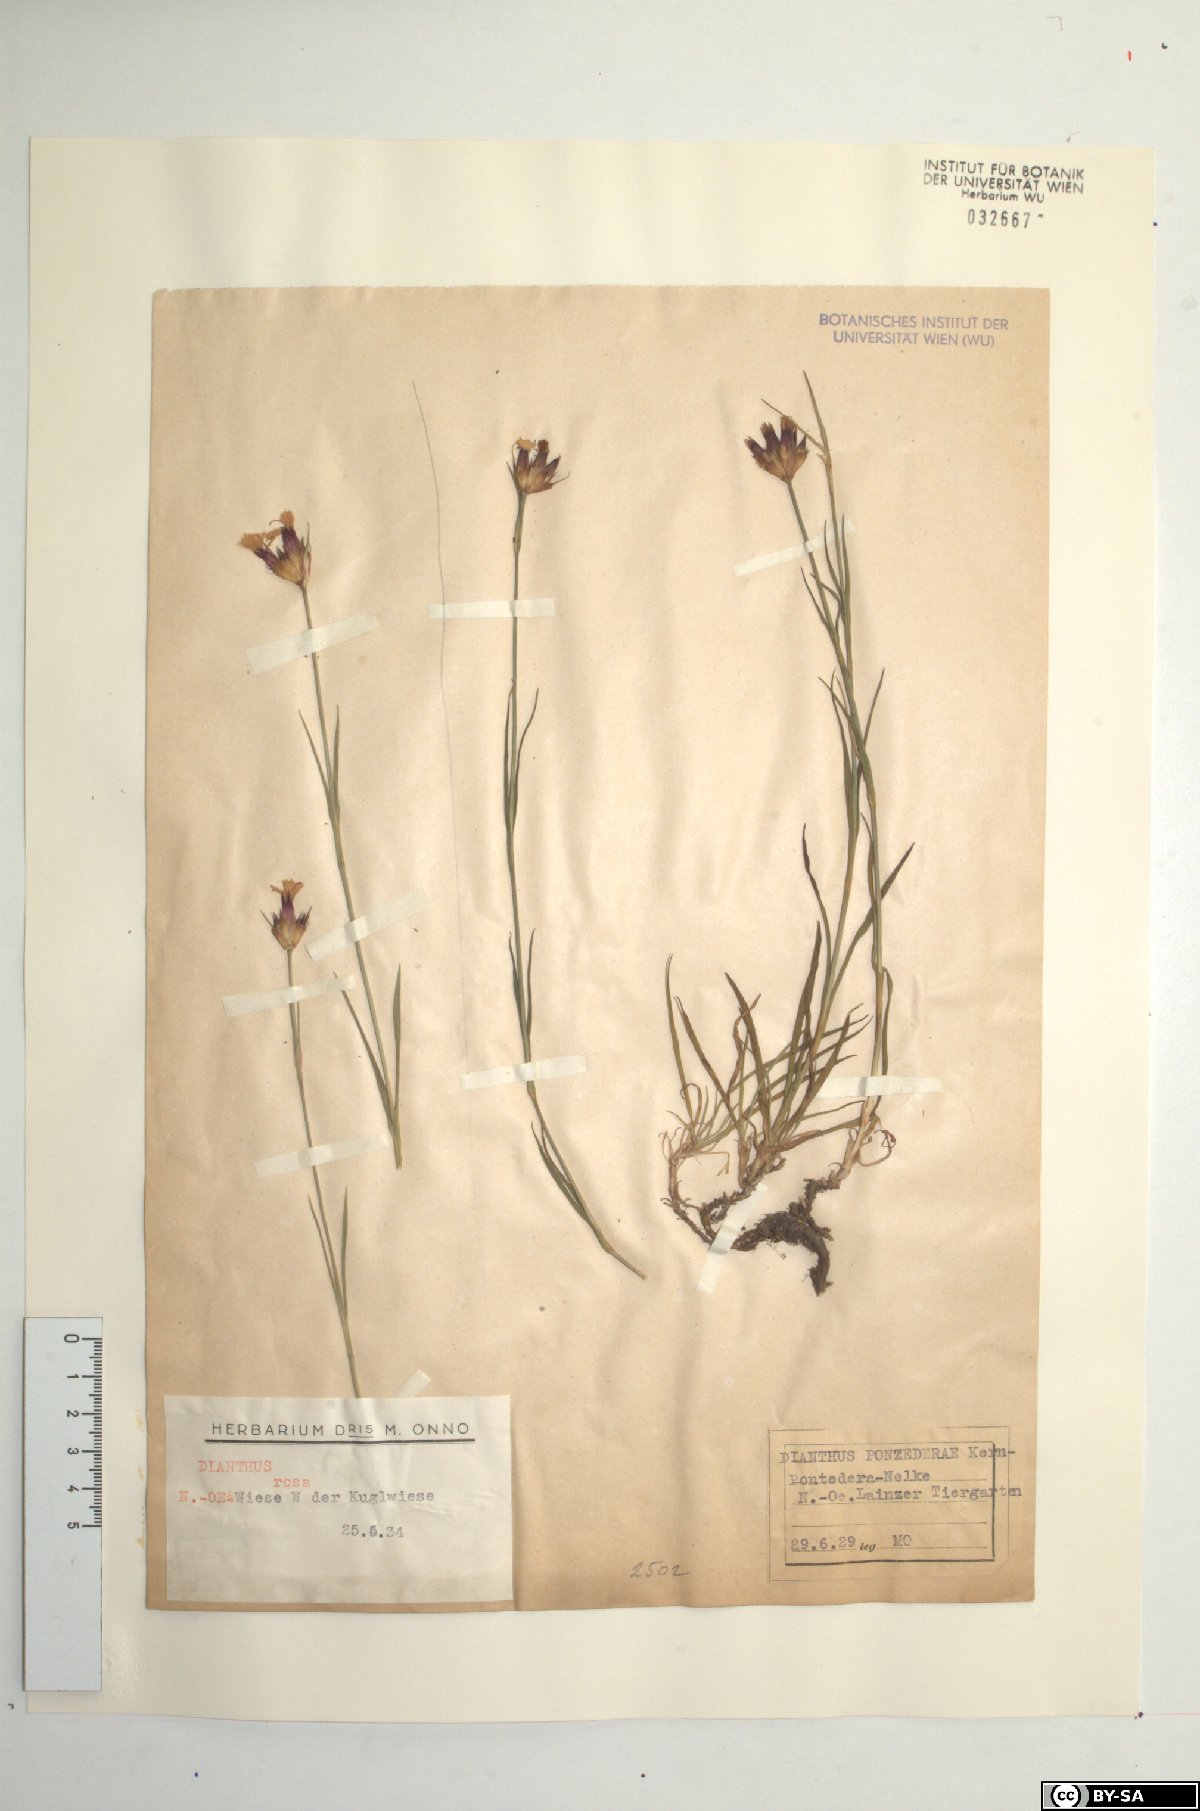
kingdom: Plantae
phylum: Tracheophyta
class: Magnoliopsida
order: Caryophyllales
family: Caryophyllaceae
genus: Dianthus
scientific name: Dianthus pontederae
